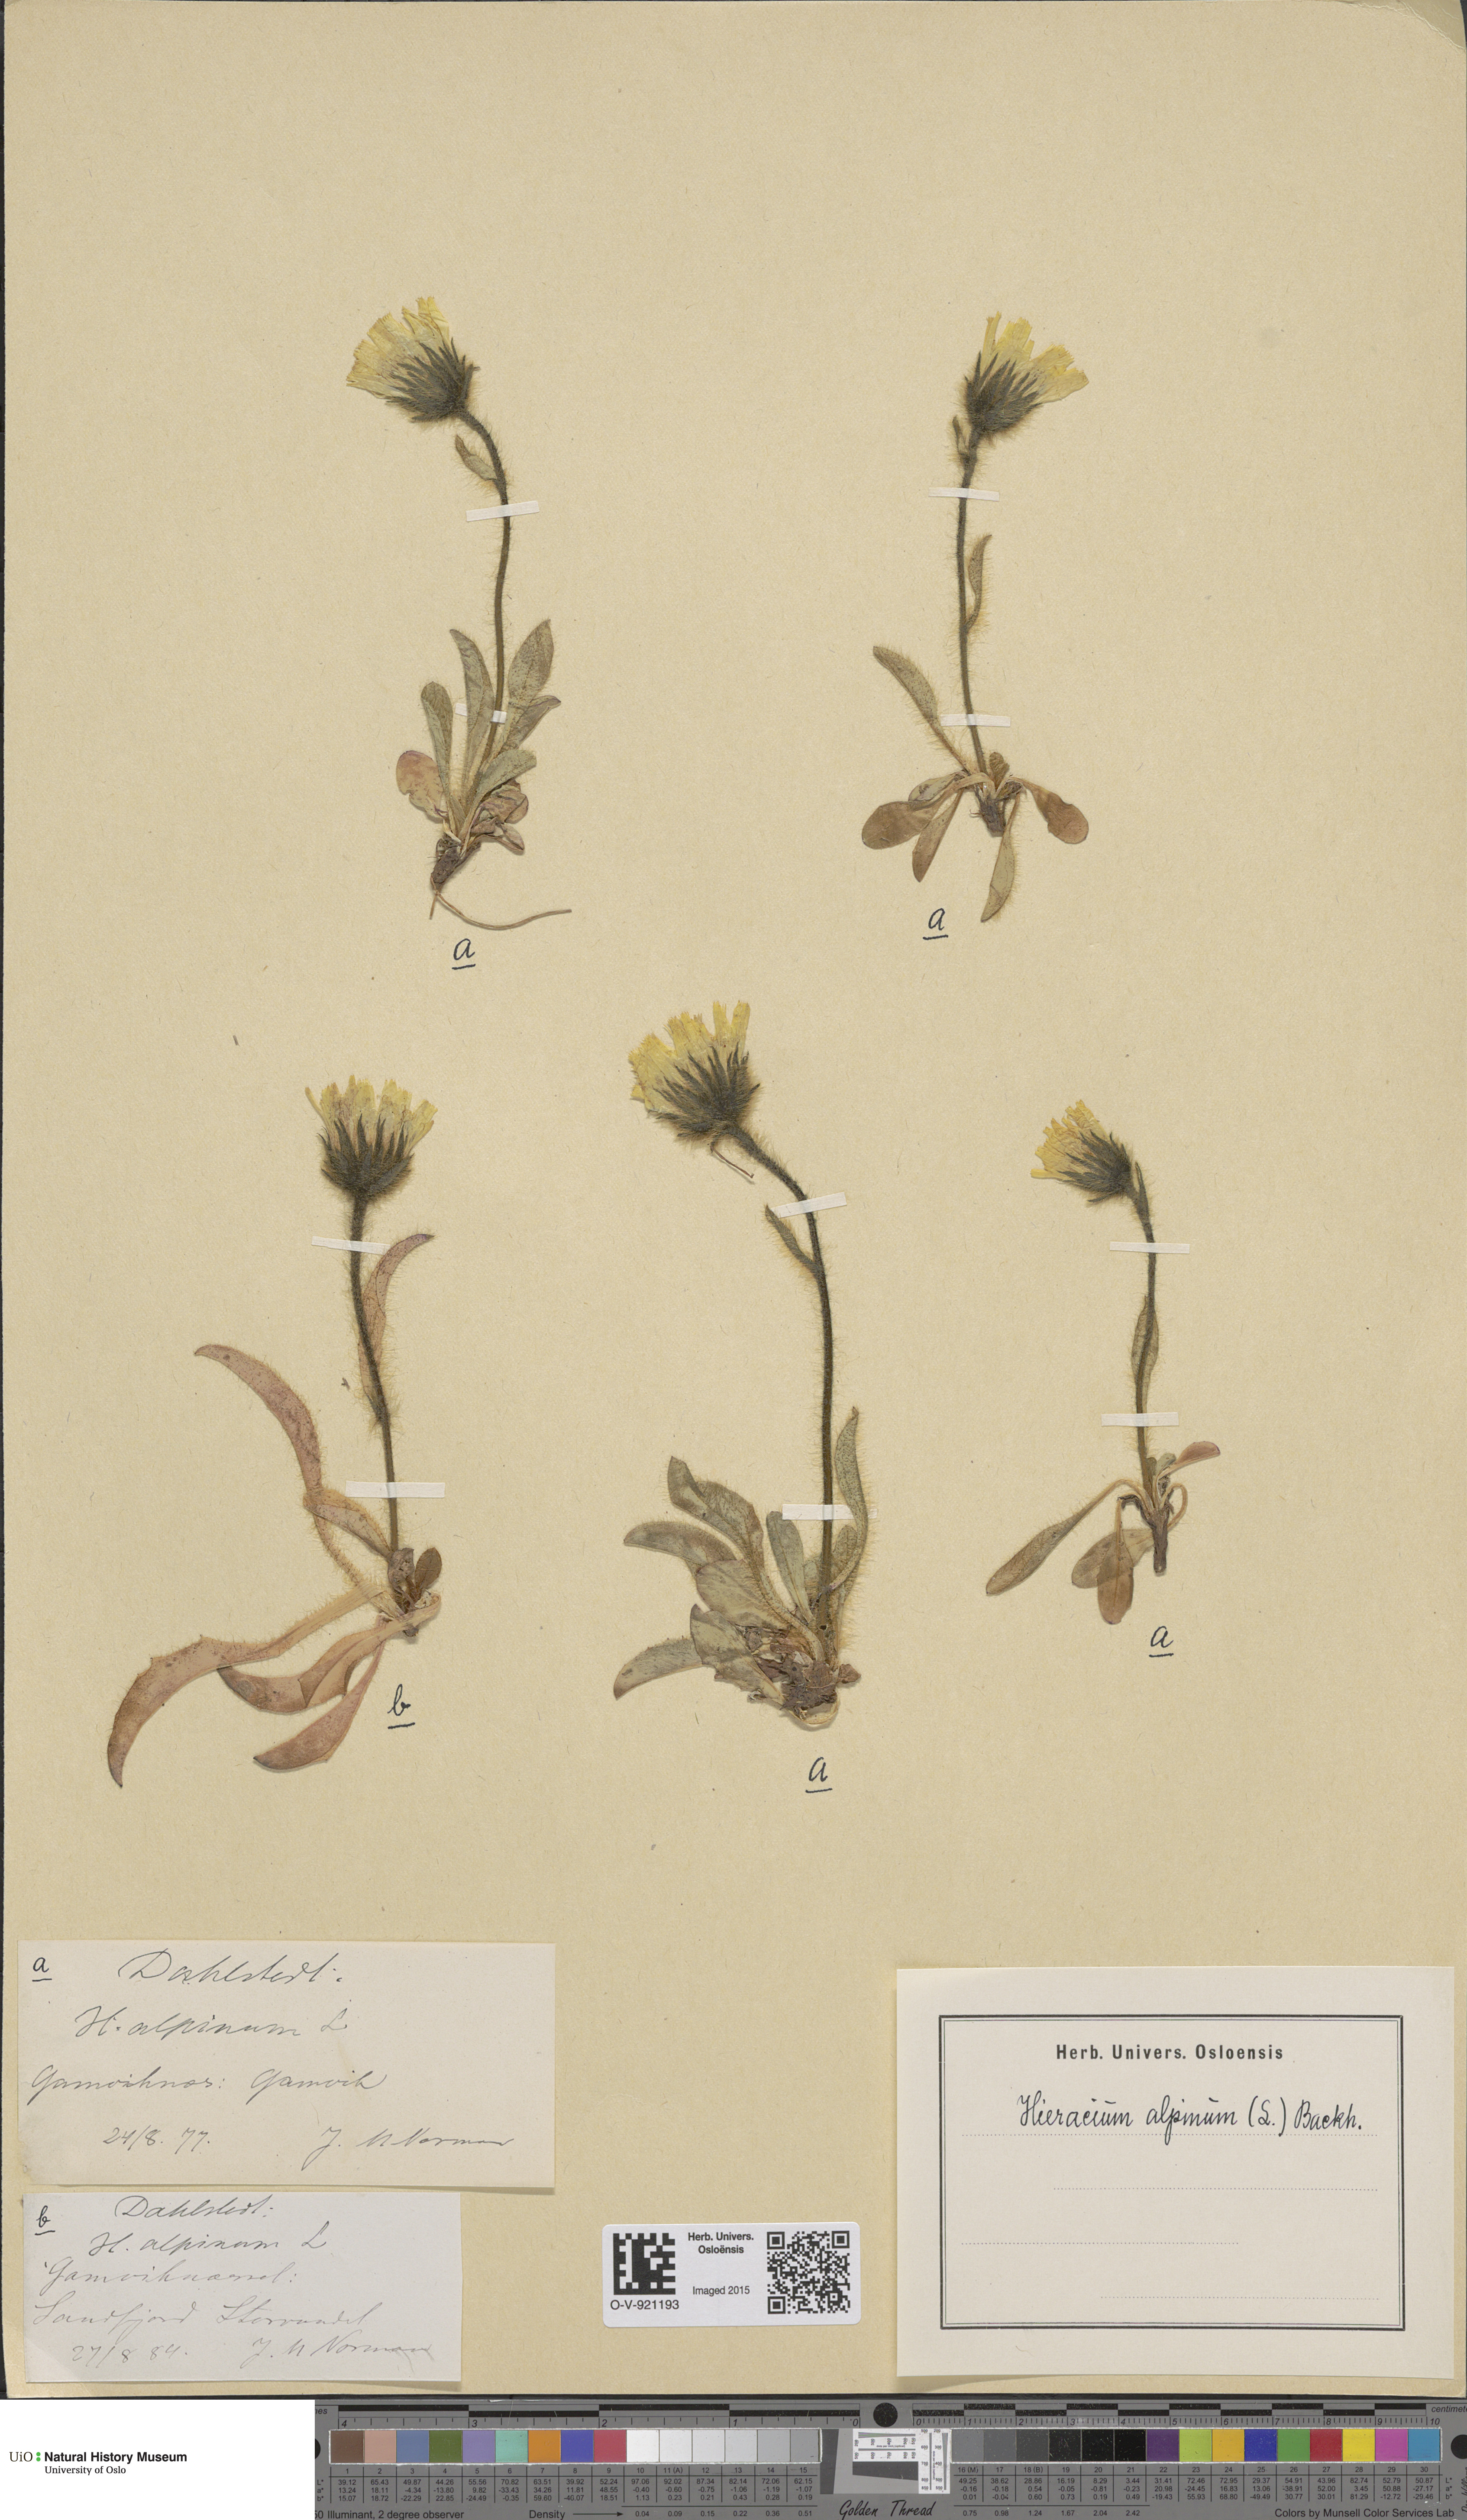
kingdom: Plantae
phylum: Tracheophyta
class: Magnoliopsida
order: Asterales
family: Asteraceae
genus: Hieracium
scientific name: Hieracium alpinum
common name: Alpine hawkweed
